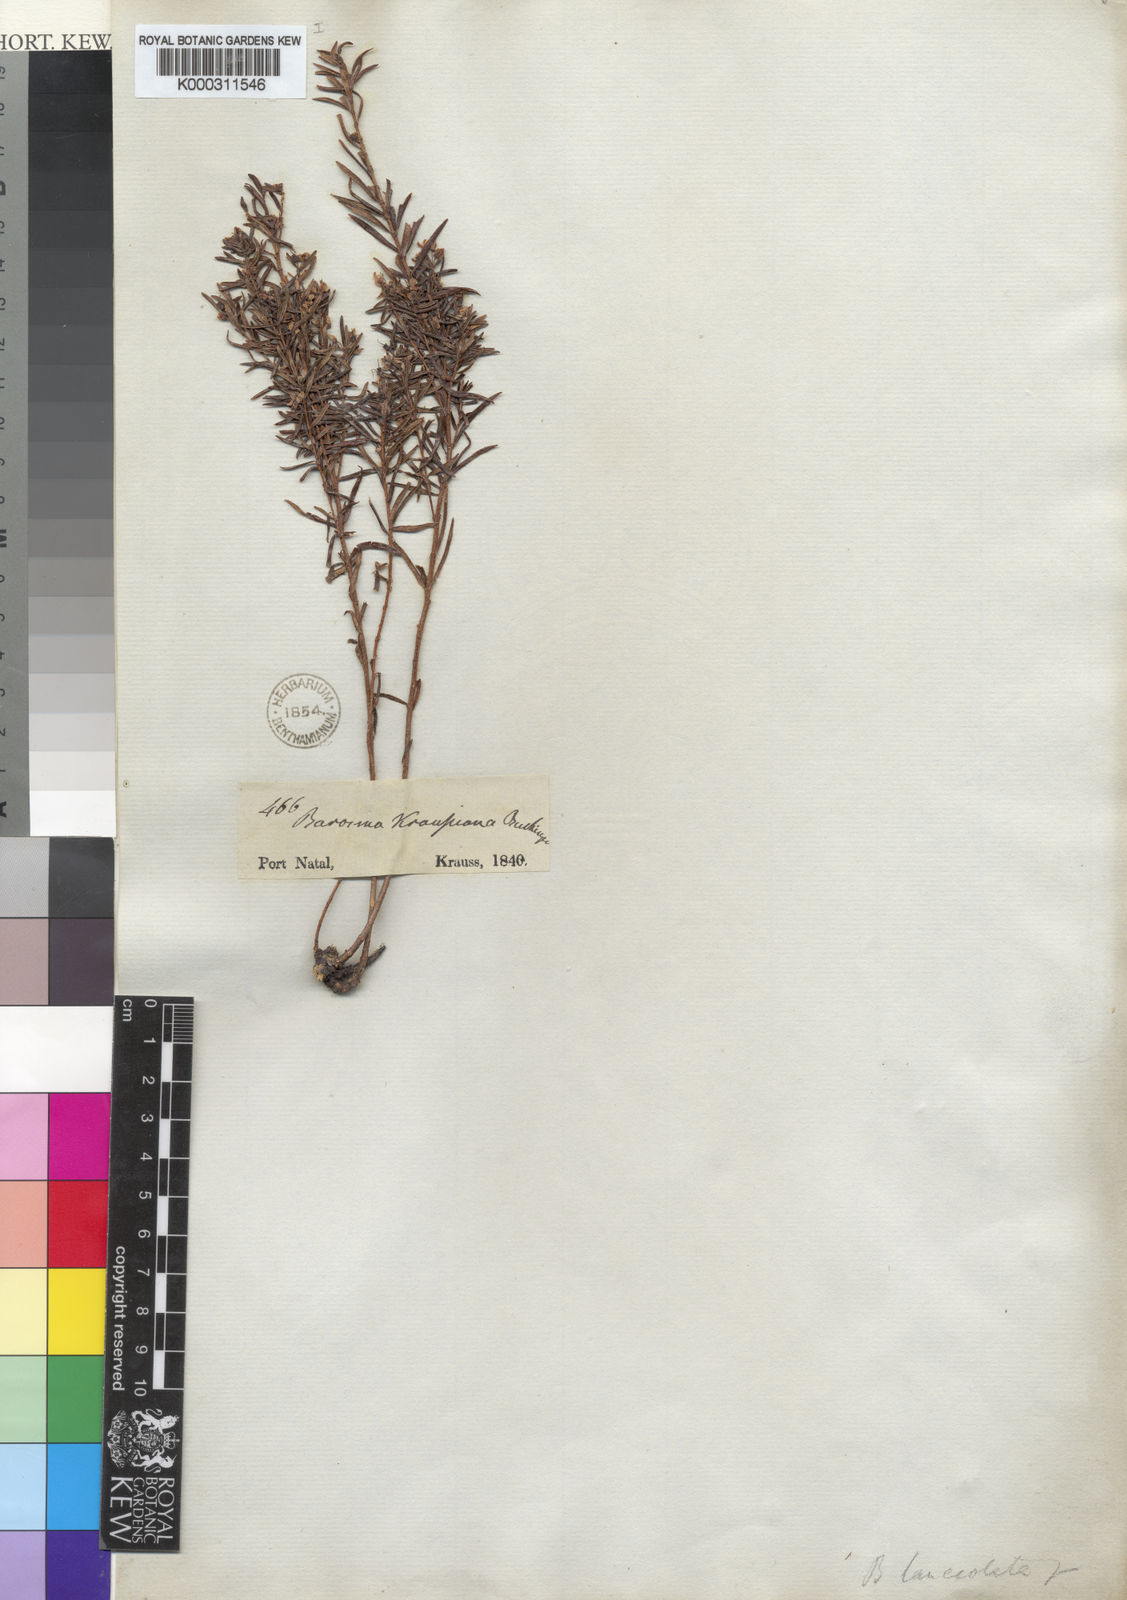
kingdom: Plantae
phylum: Tracheophyta
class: Magnoliopsida
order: Sapindales
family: Rutaceae
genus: Agathosma
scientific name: Agathosma
